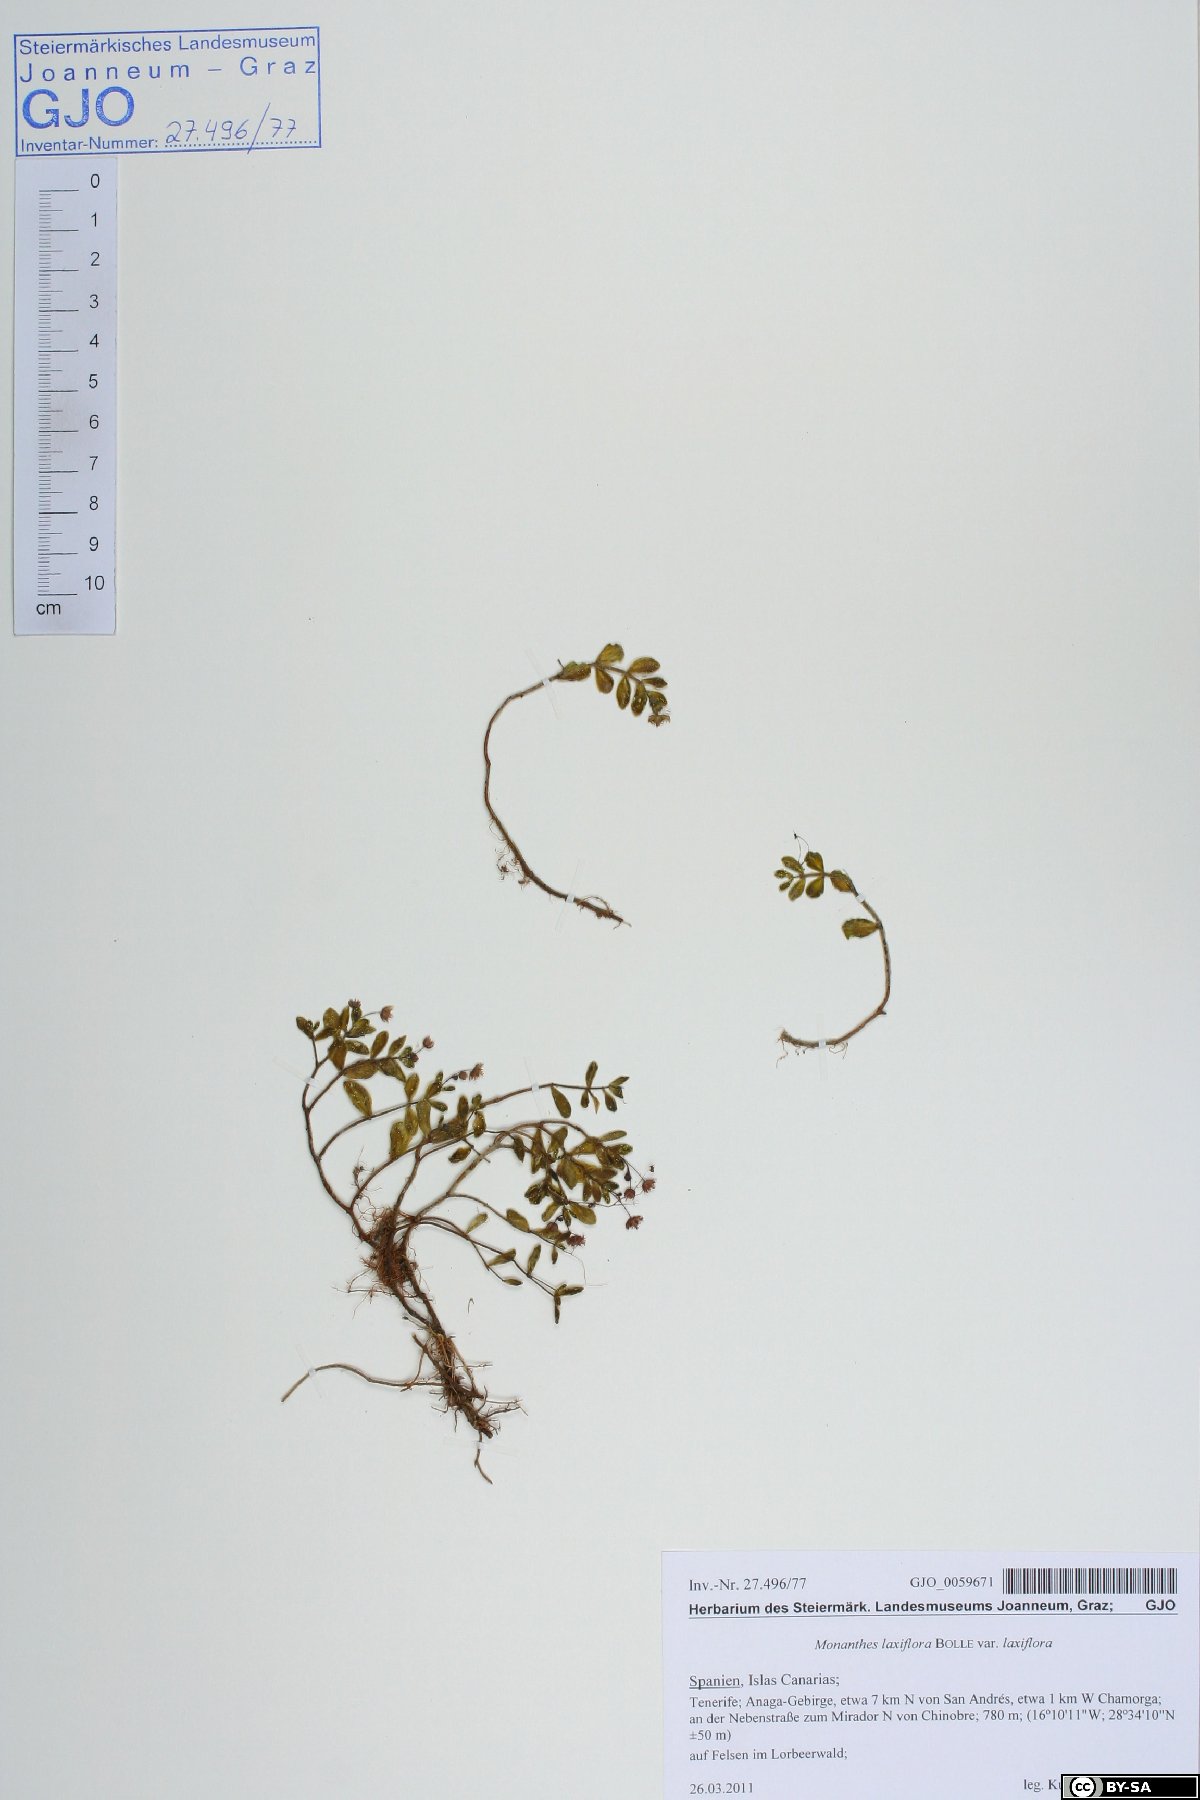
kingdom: Plantae
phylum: Tracheophyta
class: Magnoliopsida
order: Saxifragales
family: Crassulaceae
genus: Monanthes
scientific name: Monanthes laxiflora
